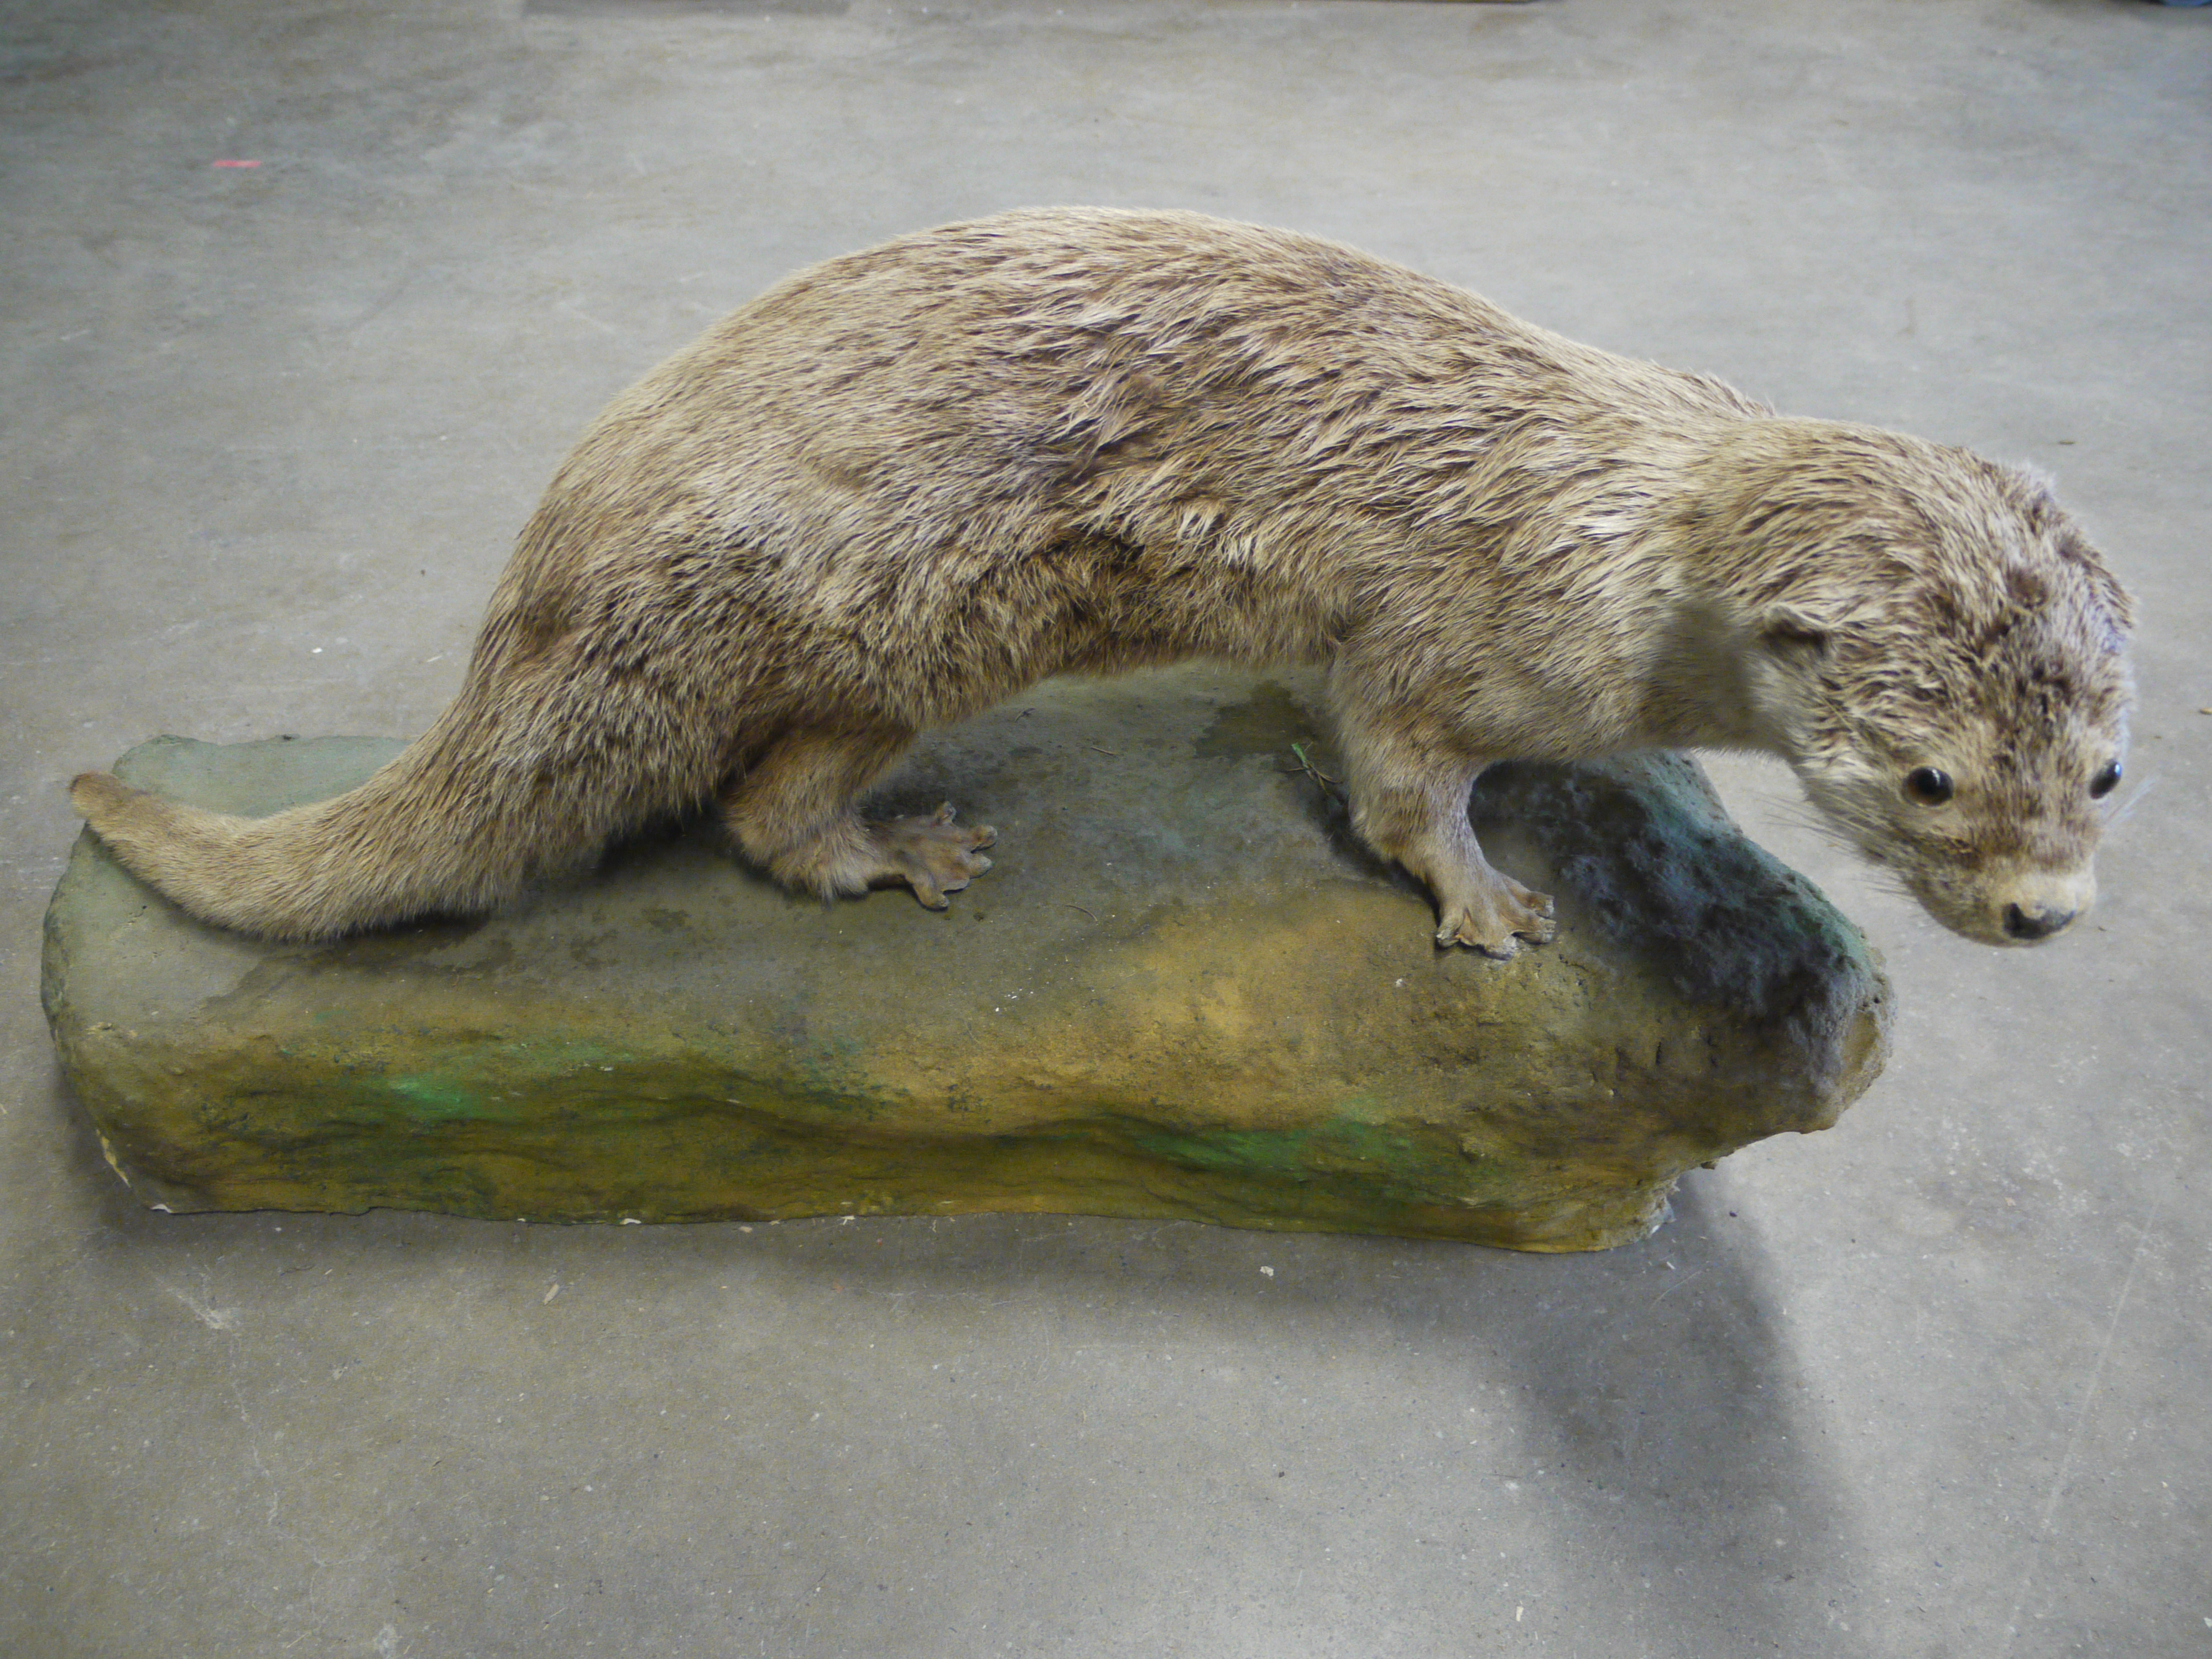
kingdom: Animalia
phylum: Chordata
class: Mammalia
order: Carnivora
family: Mustelidae
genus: Lutra
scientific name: Lutra lutra
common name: European otter
